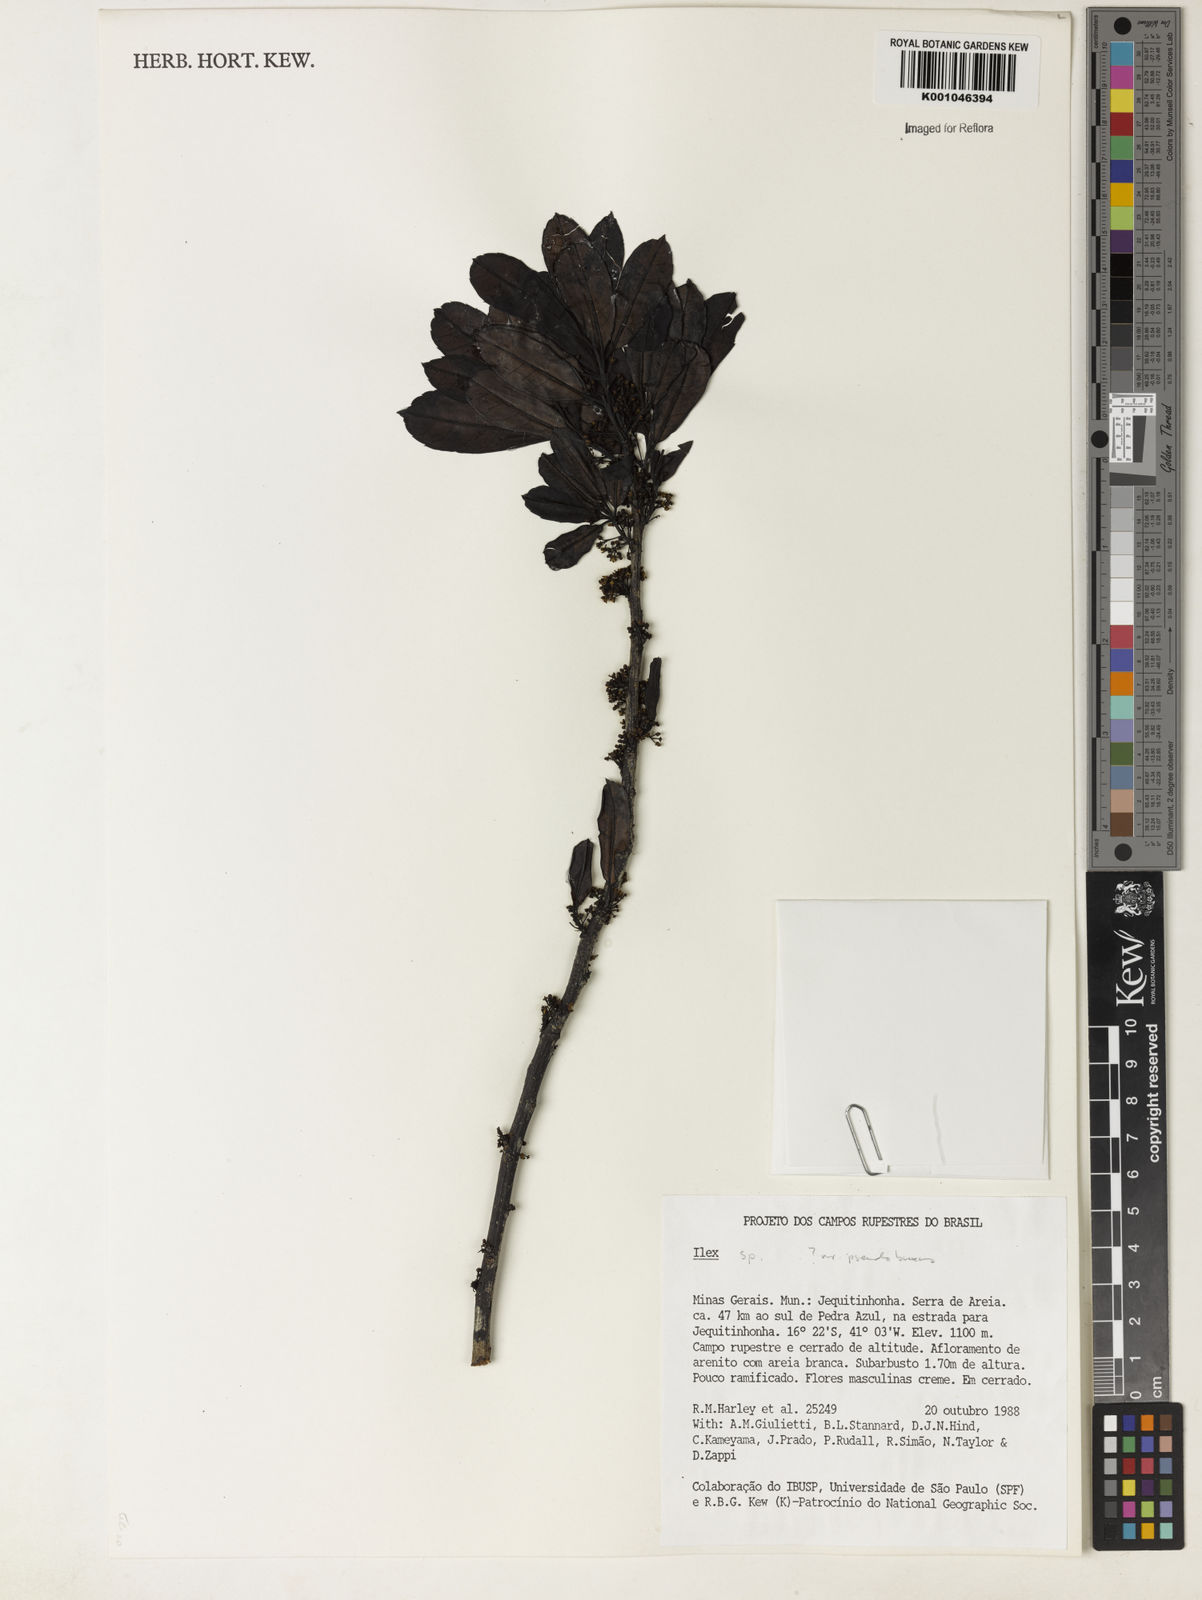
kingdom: Plantae
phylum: Tracheophyta
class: Magnoliopsida
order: Aquifoliales
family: Aquifoliaceae
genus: Ilex
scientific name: Ilex pseudobuxus
